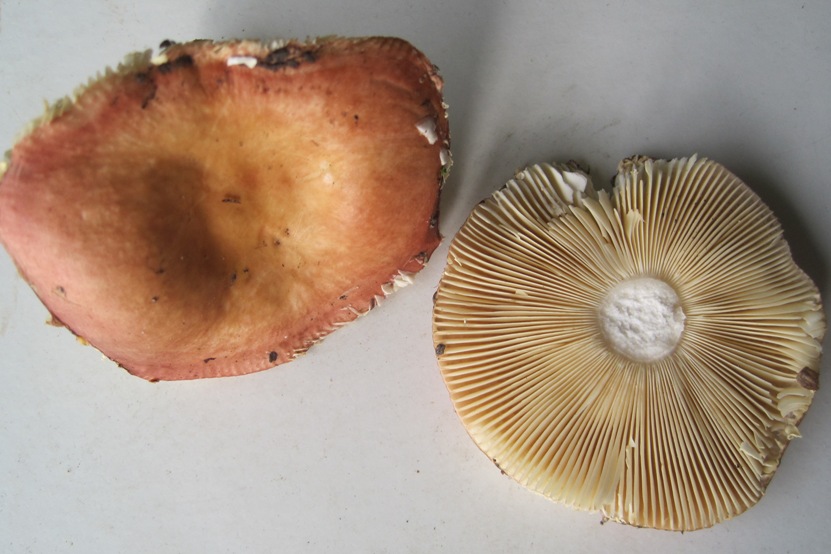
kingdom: Fungi
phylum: Basidiomycota
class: Agaricomycetes
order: Russulales
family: Russulaceae
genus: Russula
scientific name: Russula
